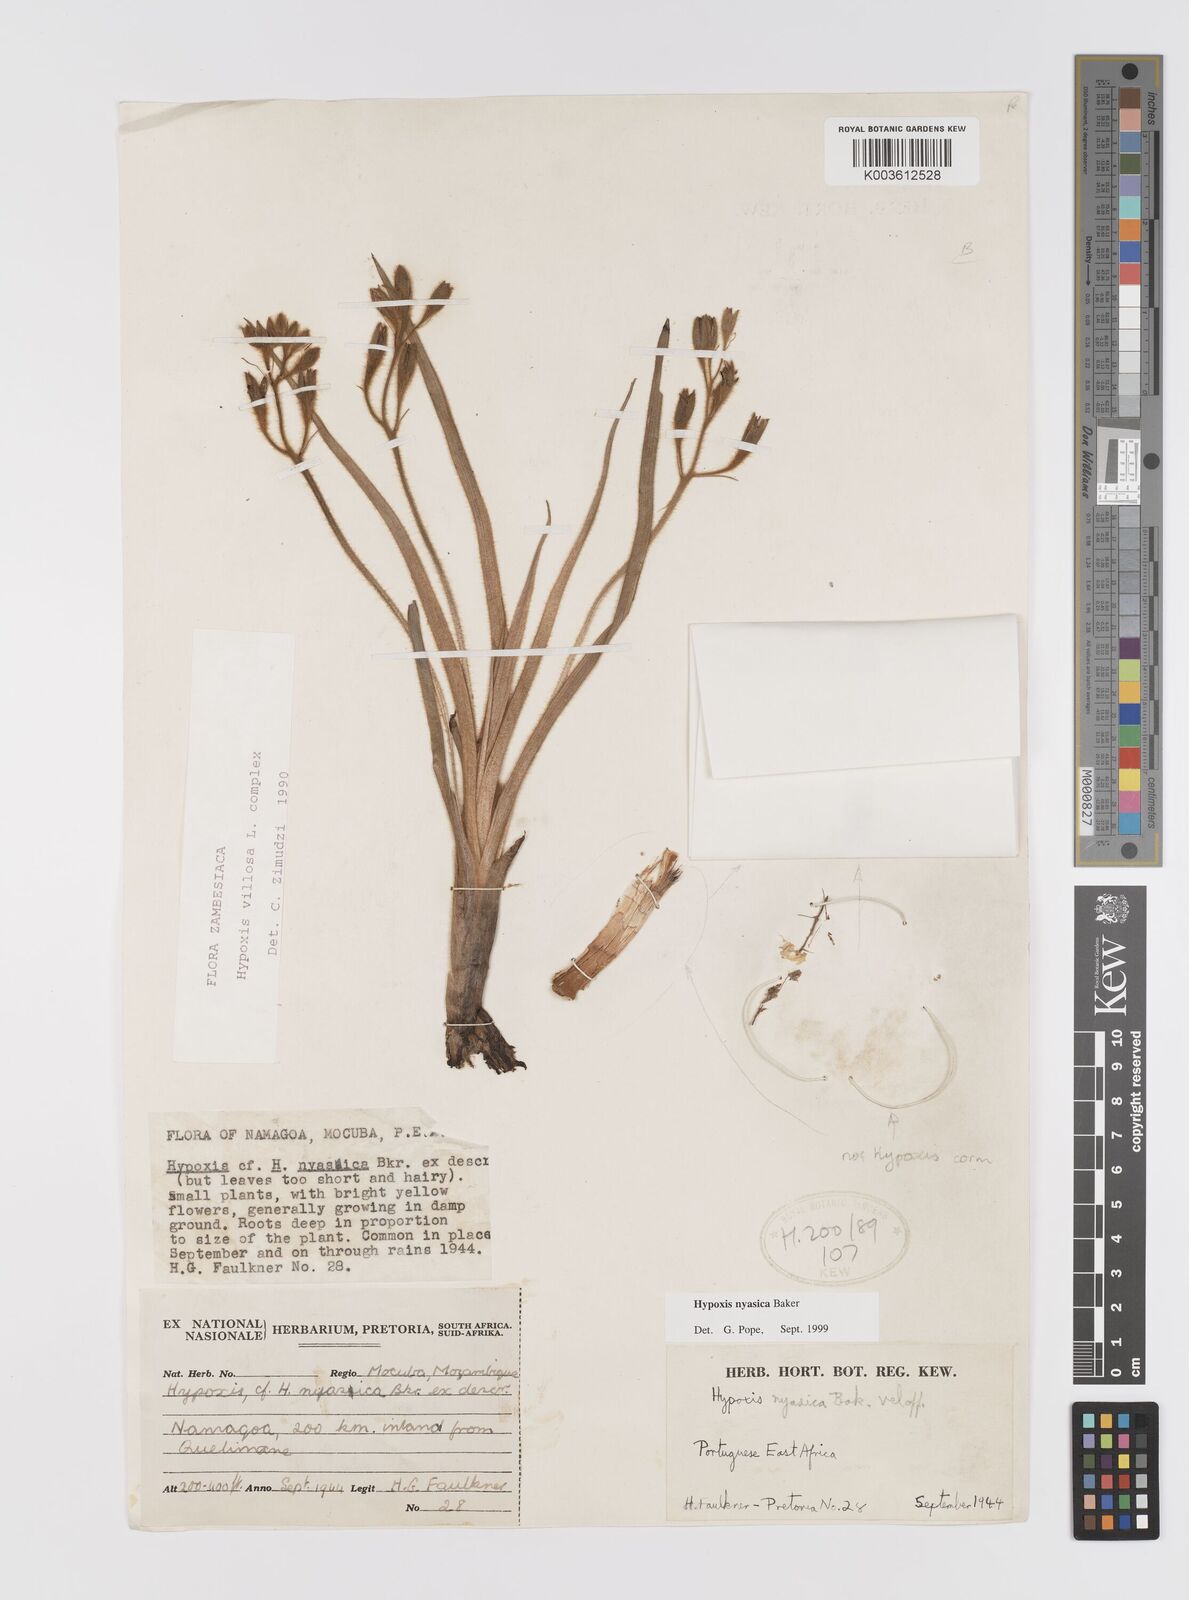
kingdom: Plantae
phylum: Tracheophyta
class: Liliopsida
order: Asparagales
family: Hypoxidaceae
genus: Hypoxis
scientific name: Hypoxis nyasica
